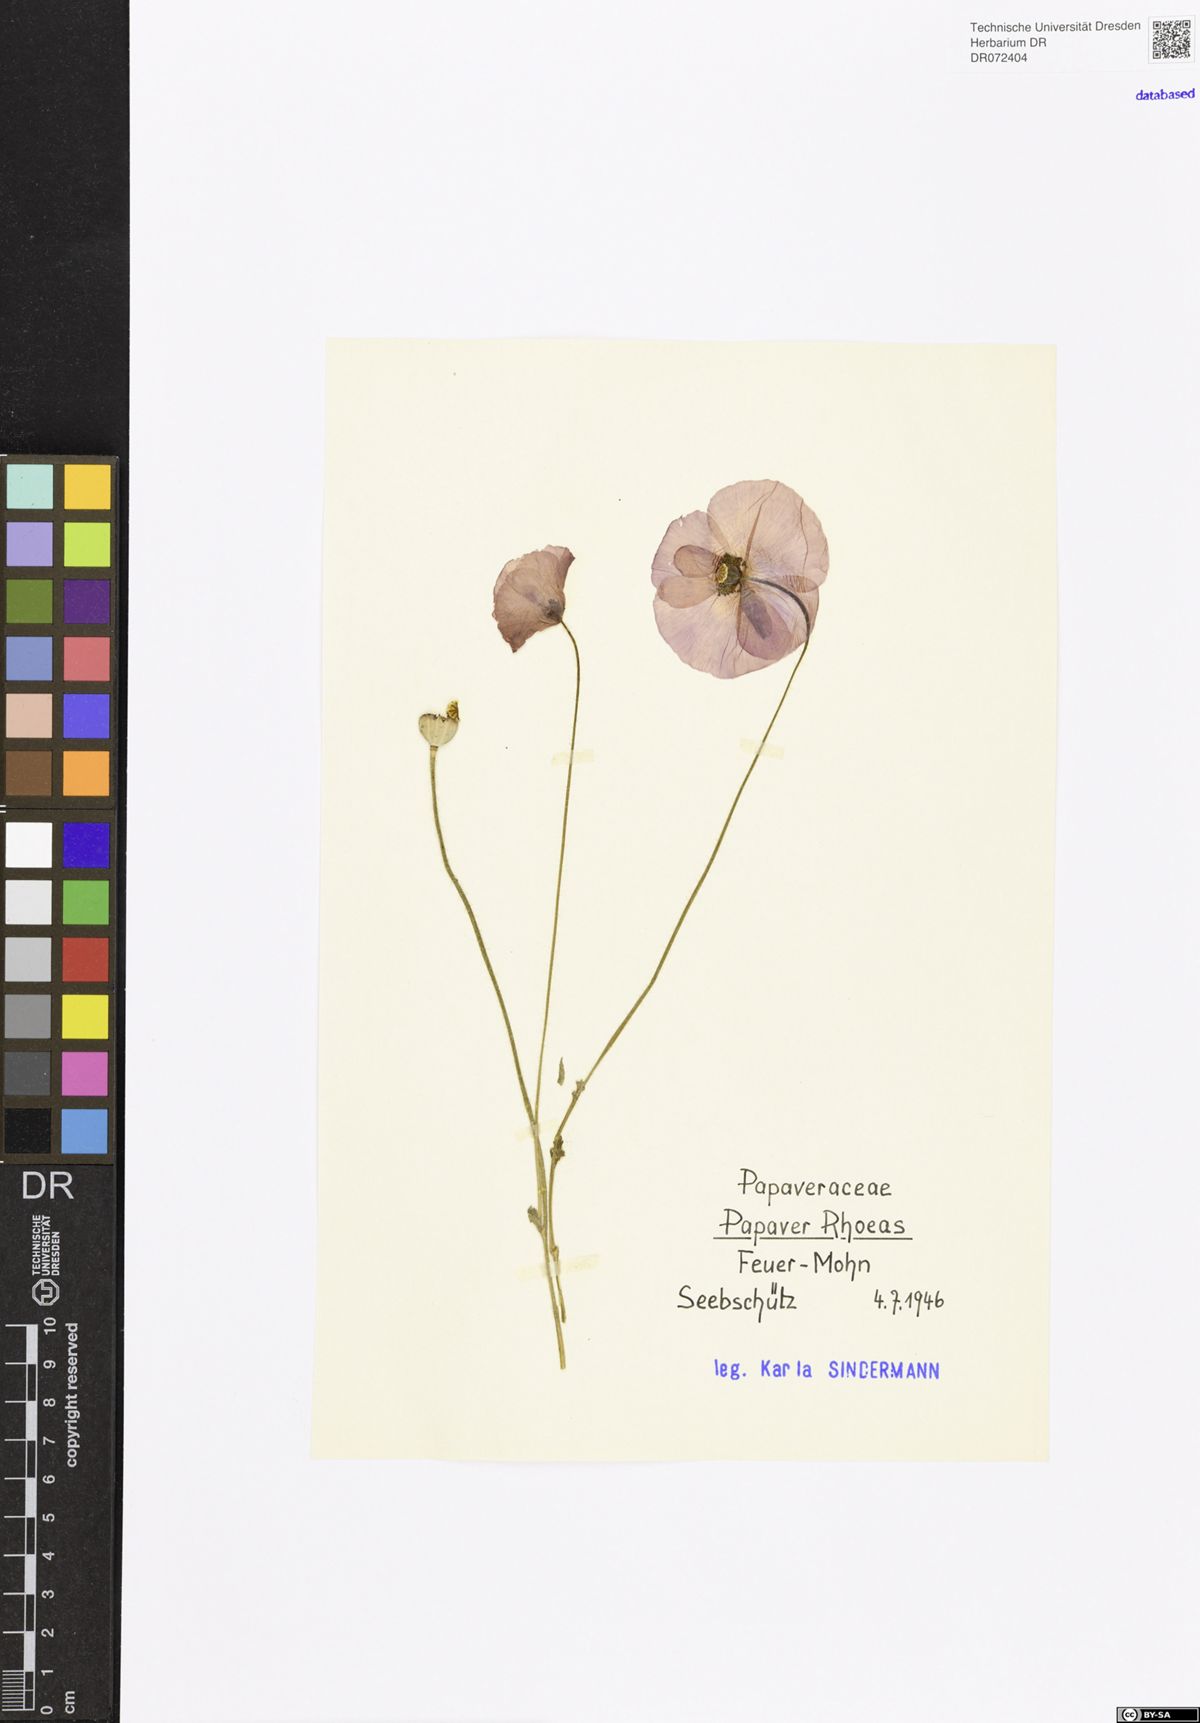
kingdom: Plantae
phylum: Tracheophyta
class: Magnoliopsida
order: Ranunculales
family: Papaveraceae
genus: Papaver
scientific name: Papaver rhoeas
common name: Corn poppy
